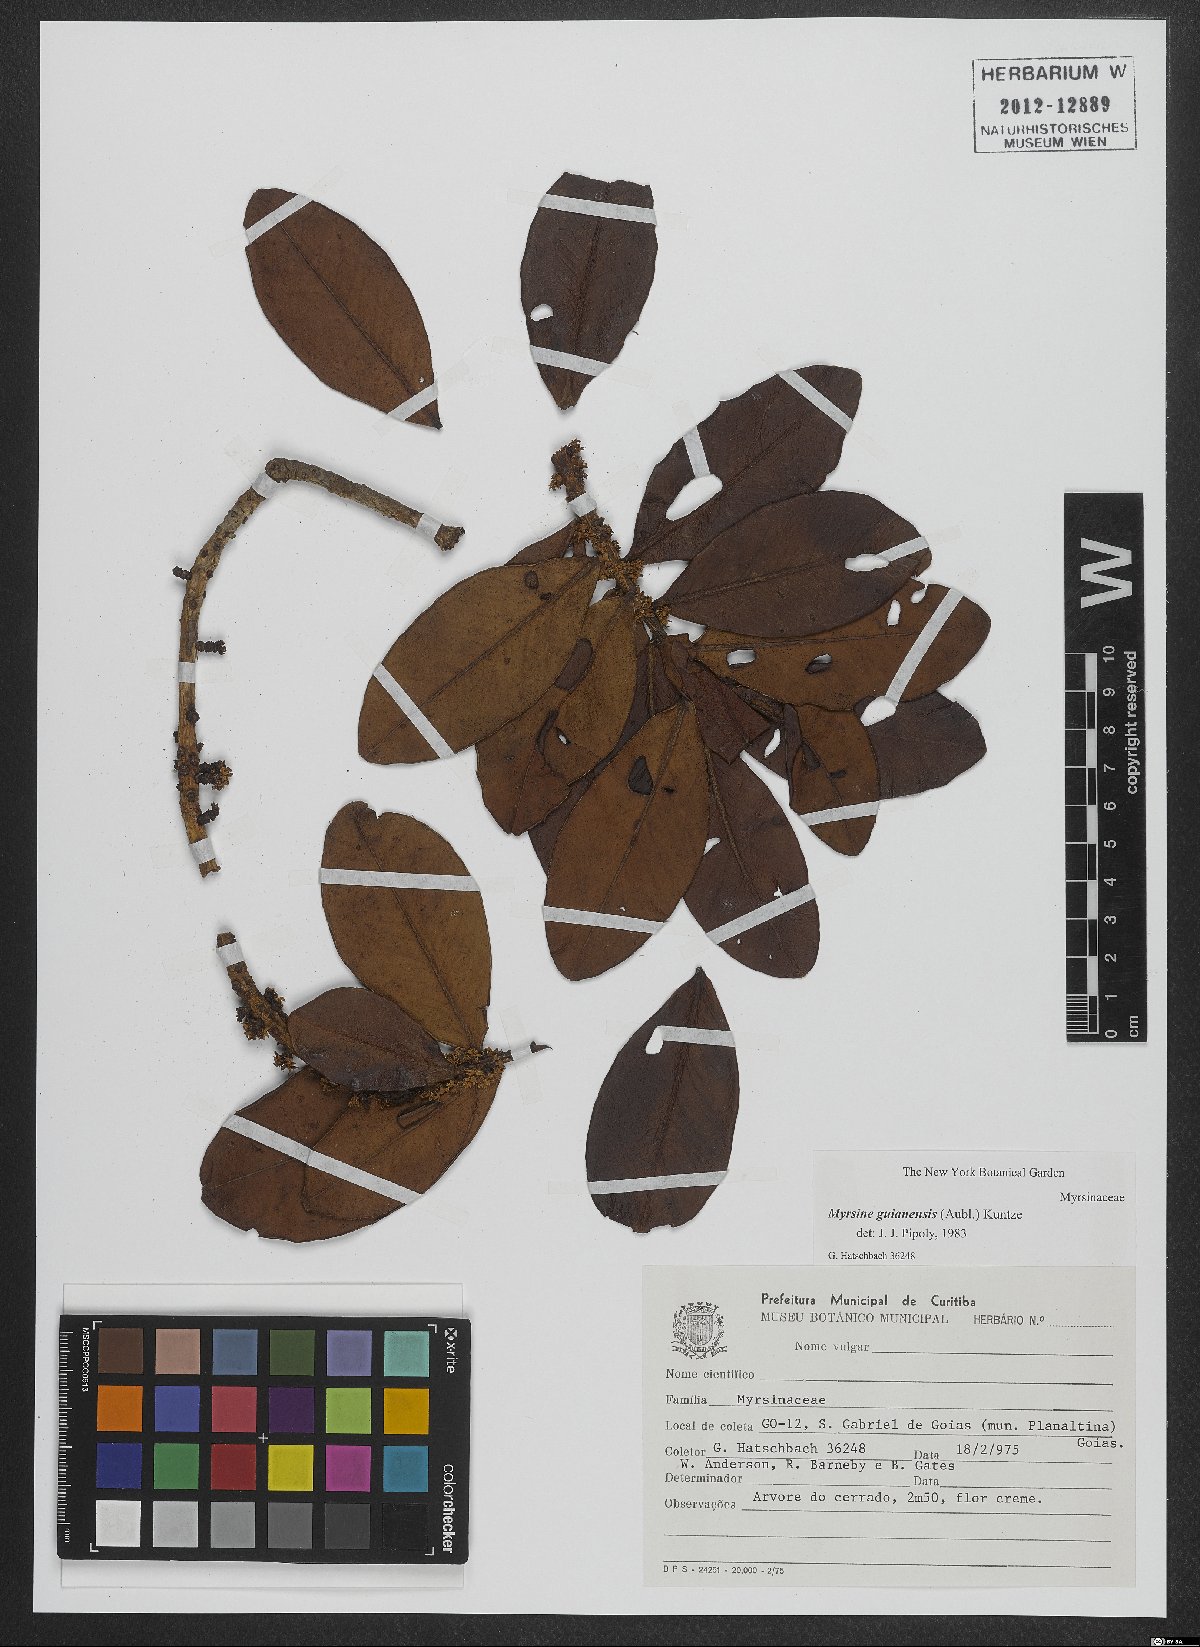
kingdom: Plantae
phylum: Tracheophyta
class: Magnoliopsida
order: Ericales
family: Primulaceae
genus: Myrsine
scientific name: Myrsine guianensis
